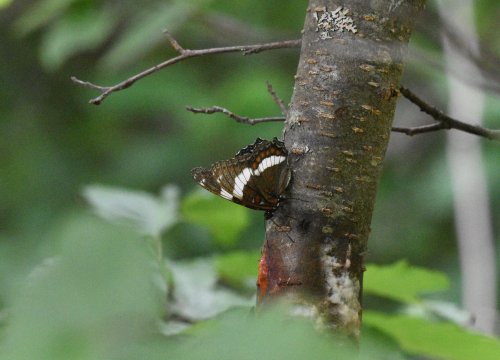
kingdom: Animalia
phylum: Arthropoda
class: Insecta
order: Lepidoptera
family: Nymphalidae
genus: Limenitis
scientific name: Limenitis arthemis
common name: Red-spotted Admiral
